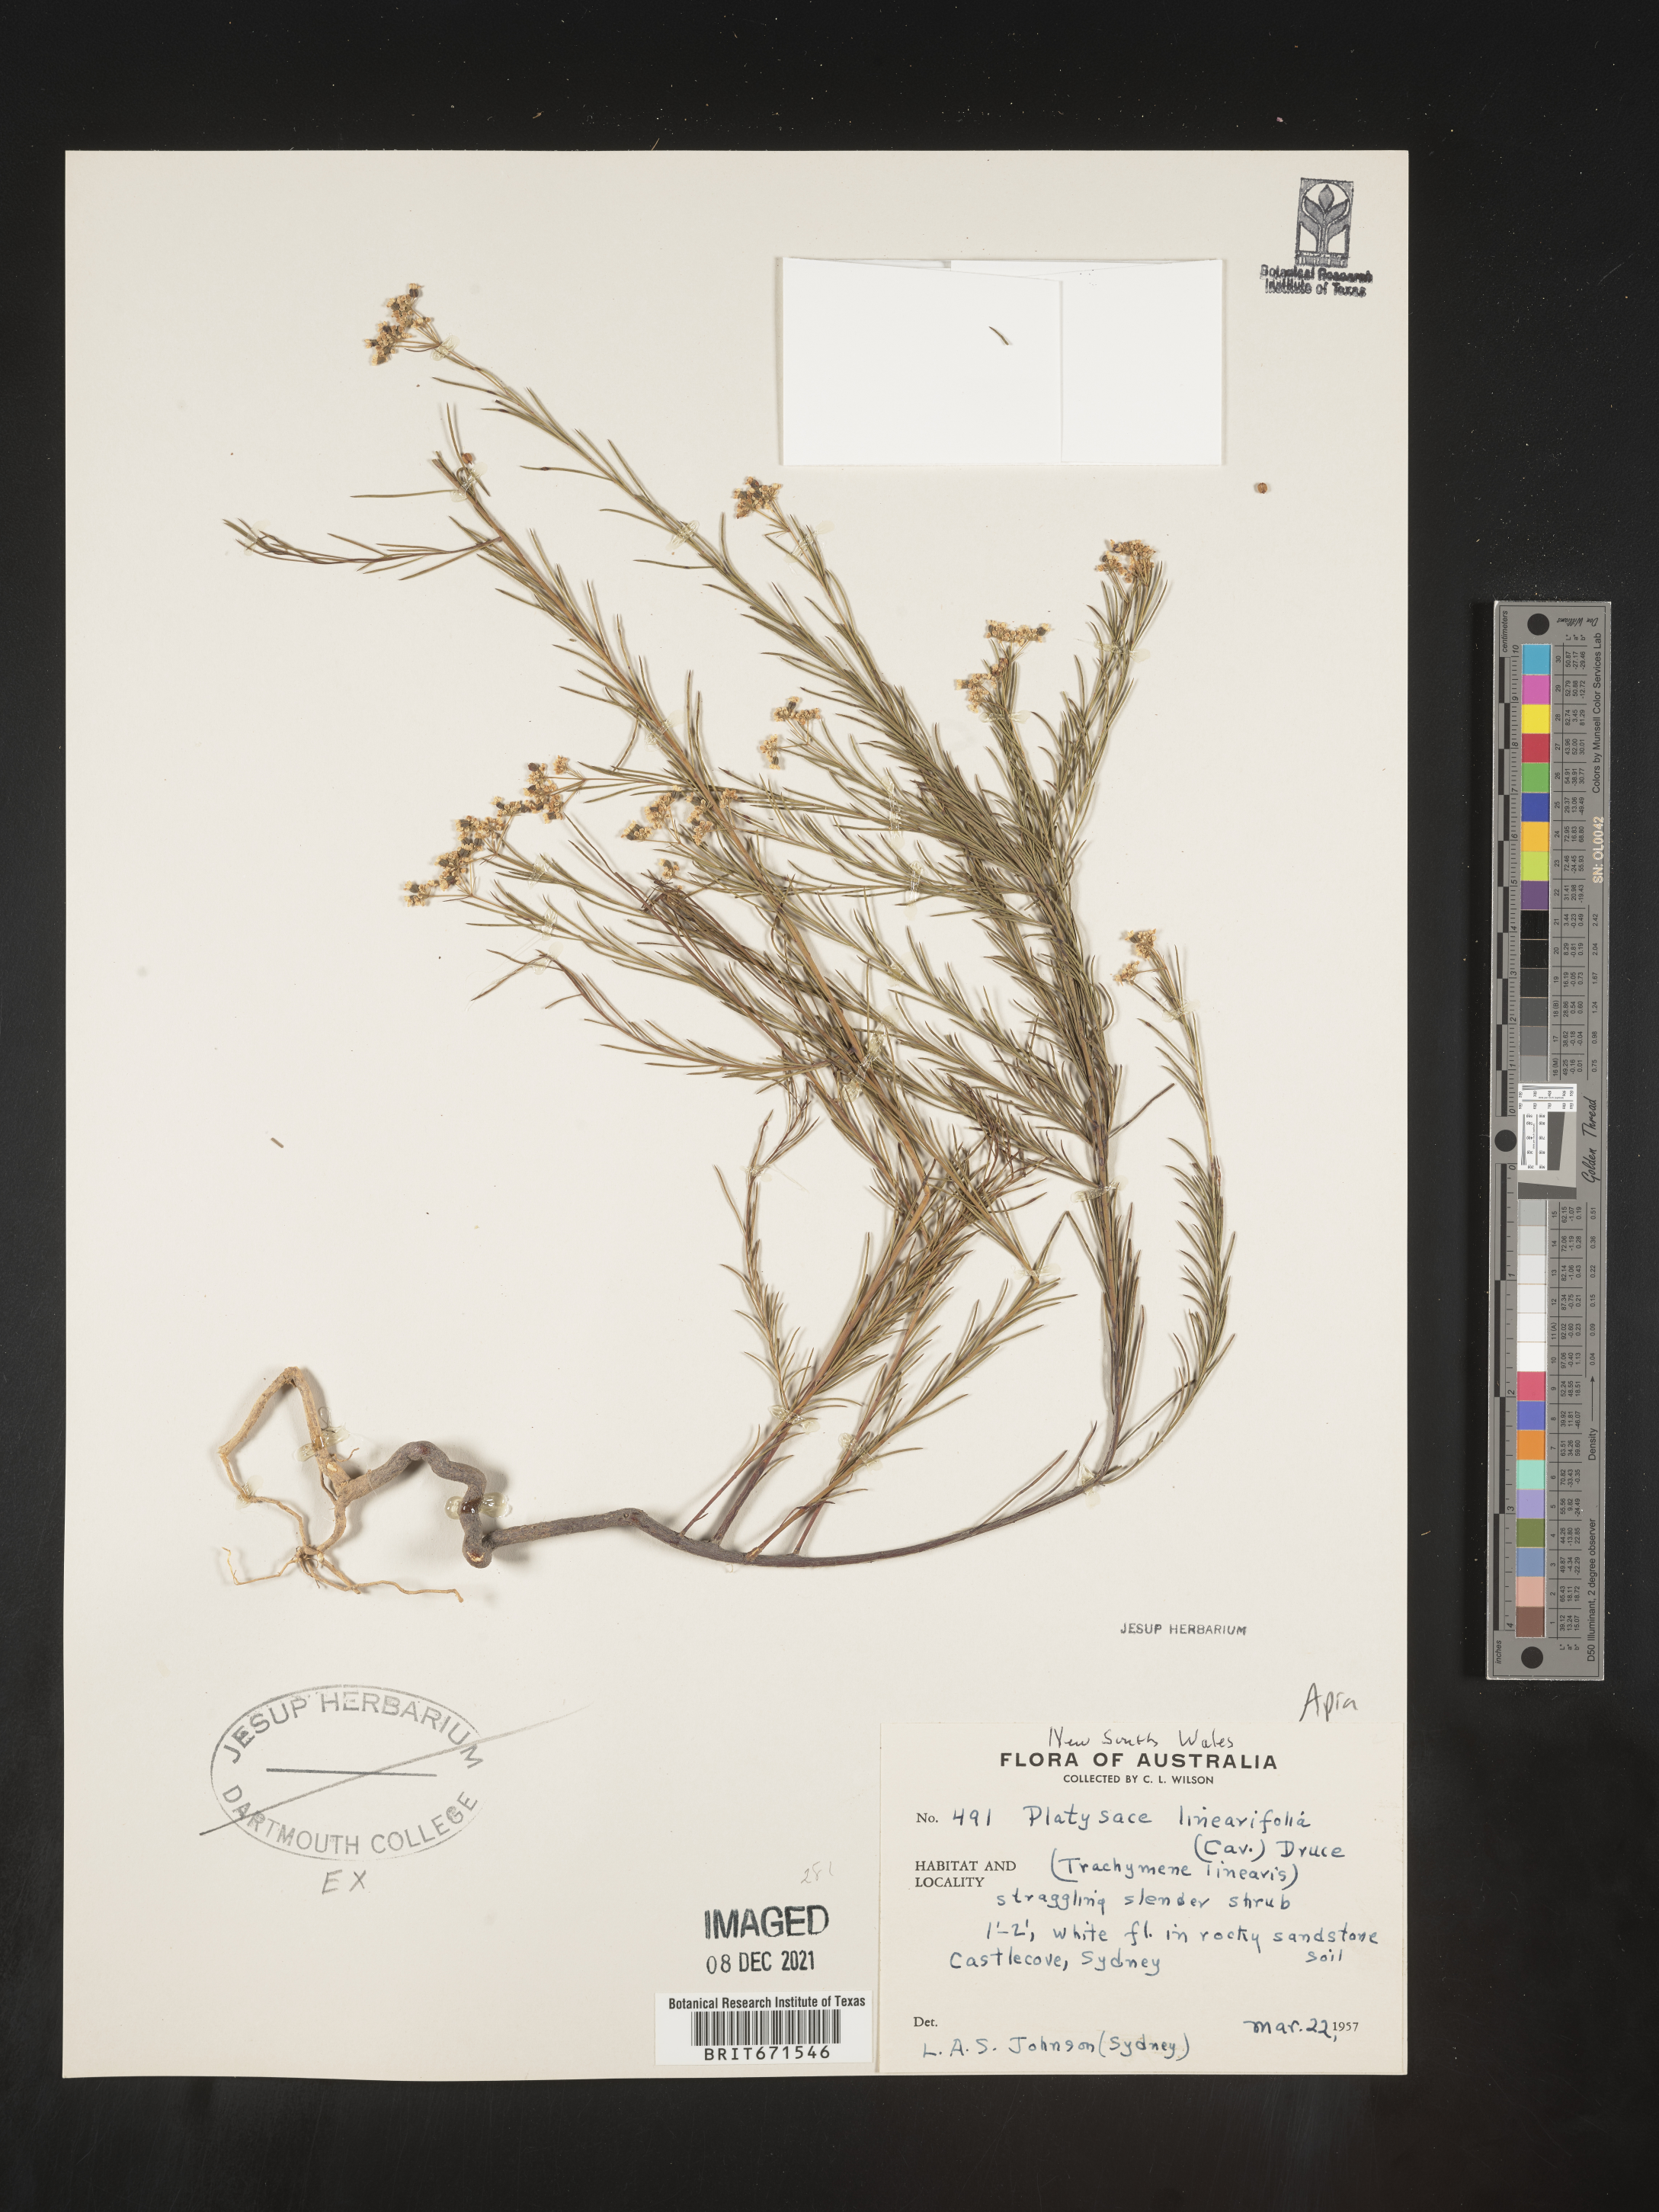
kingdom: Plantae
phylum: Tracheophyta
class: Magnoliopsida
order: Apiales
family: Apiaceae
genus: Platysace
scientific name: Platysace
